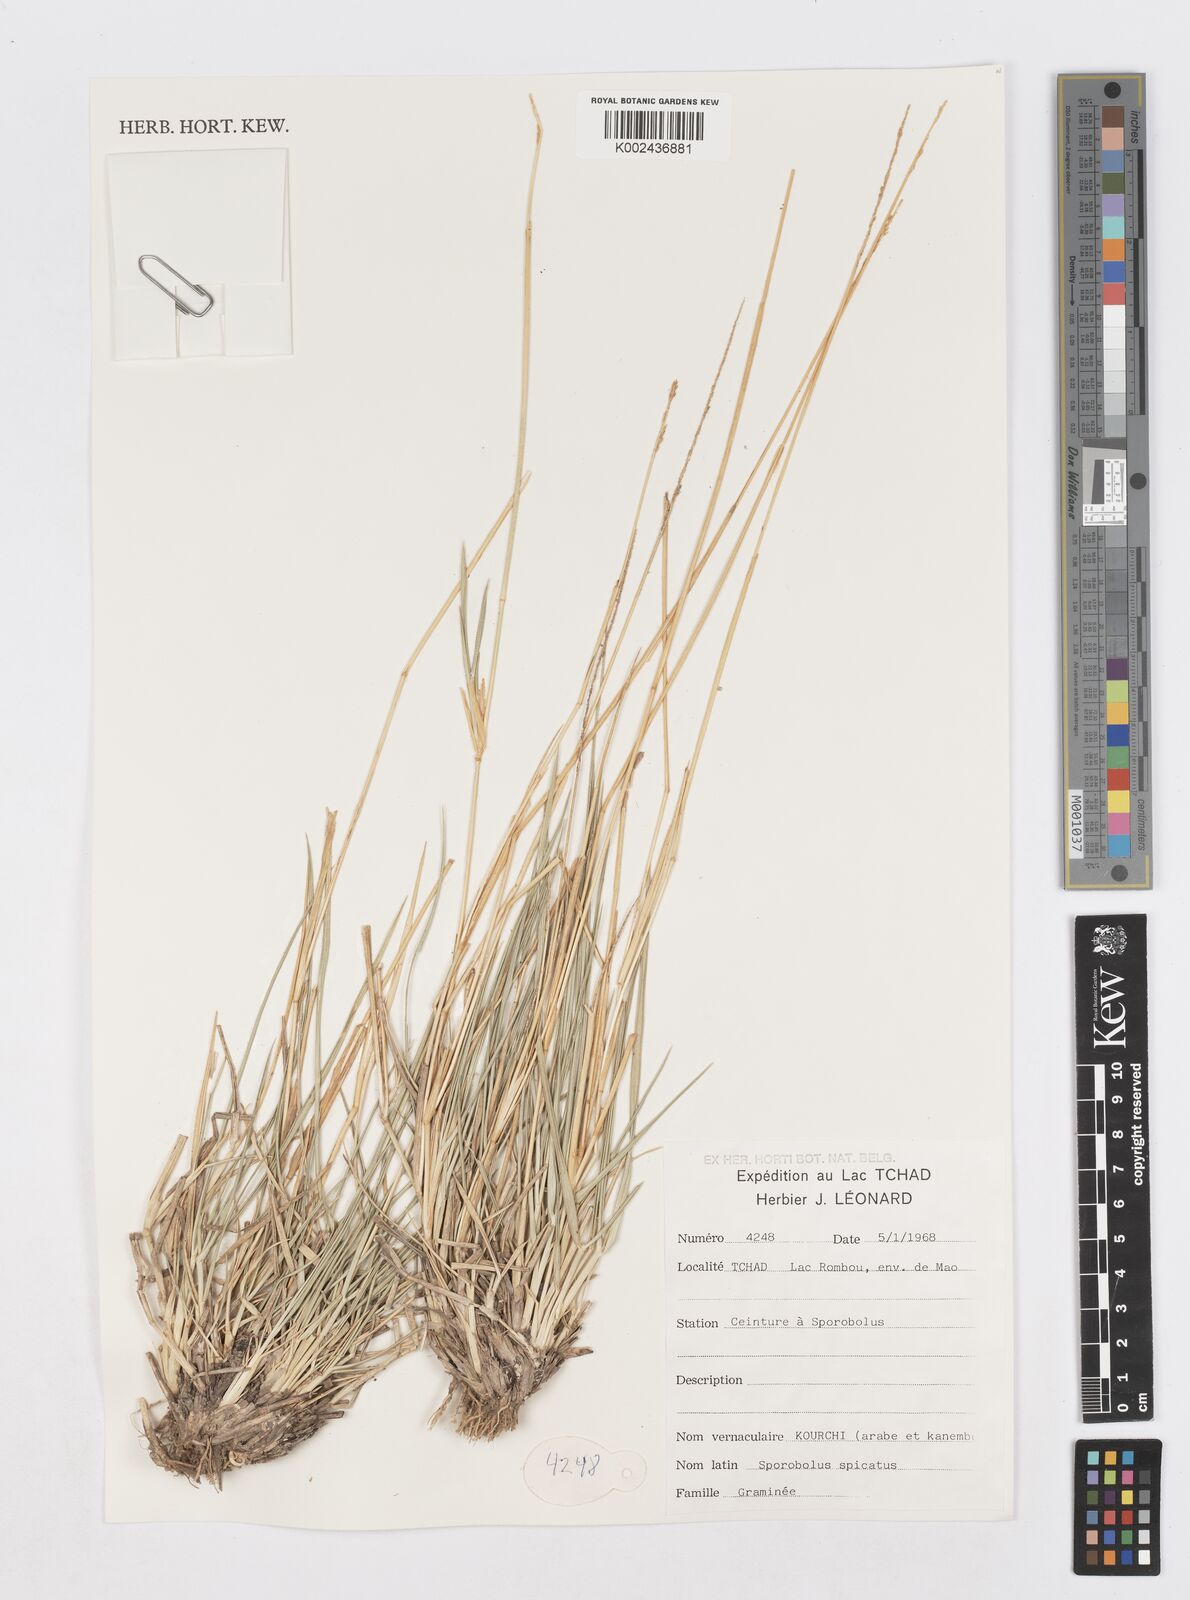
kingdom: Plantae
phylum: Tracheophyta
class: Liliopsida
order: Poales
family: Poaceae
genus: Sporobolus
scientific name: Sporobolus spicatus
